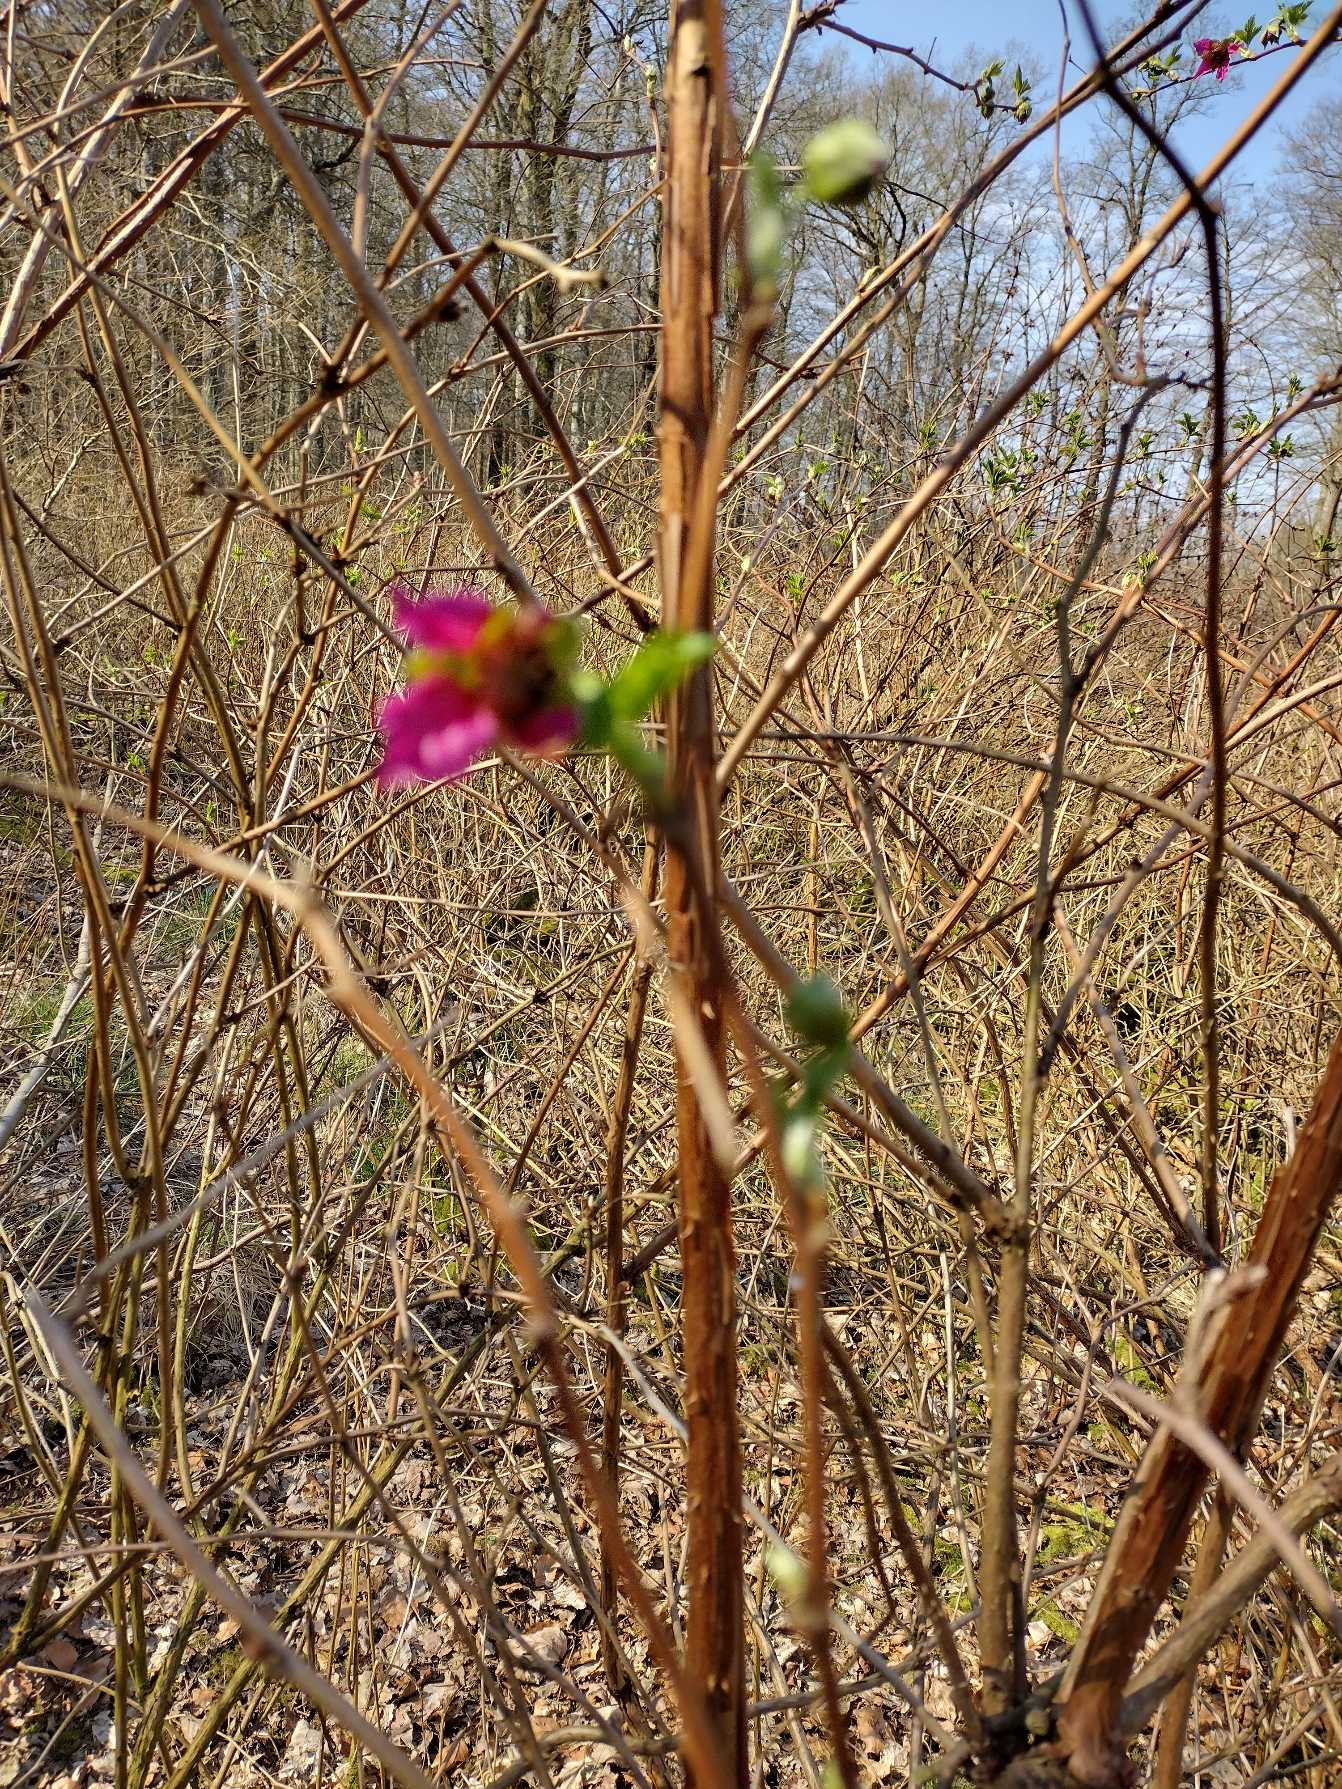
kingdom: Plantae
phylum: Tracheophyta
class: Magnoliopsida
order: Rosales
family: Rosaceae
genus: Rubus
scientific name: Rubus spectabilis
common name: Laksebær
